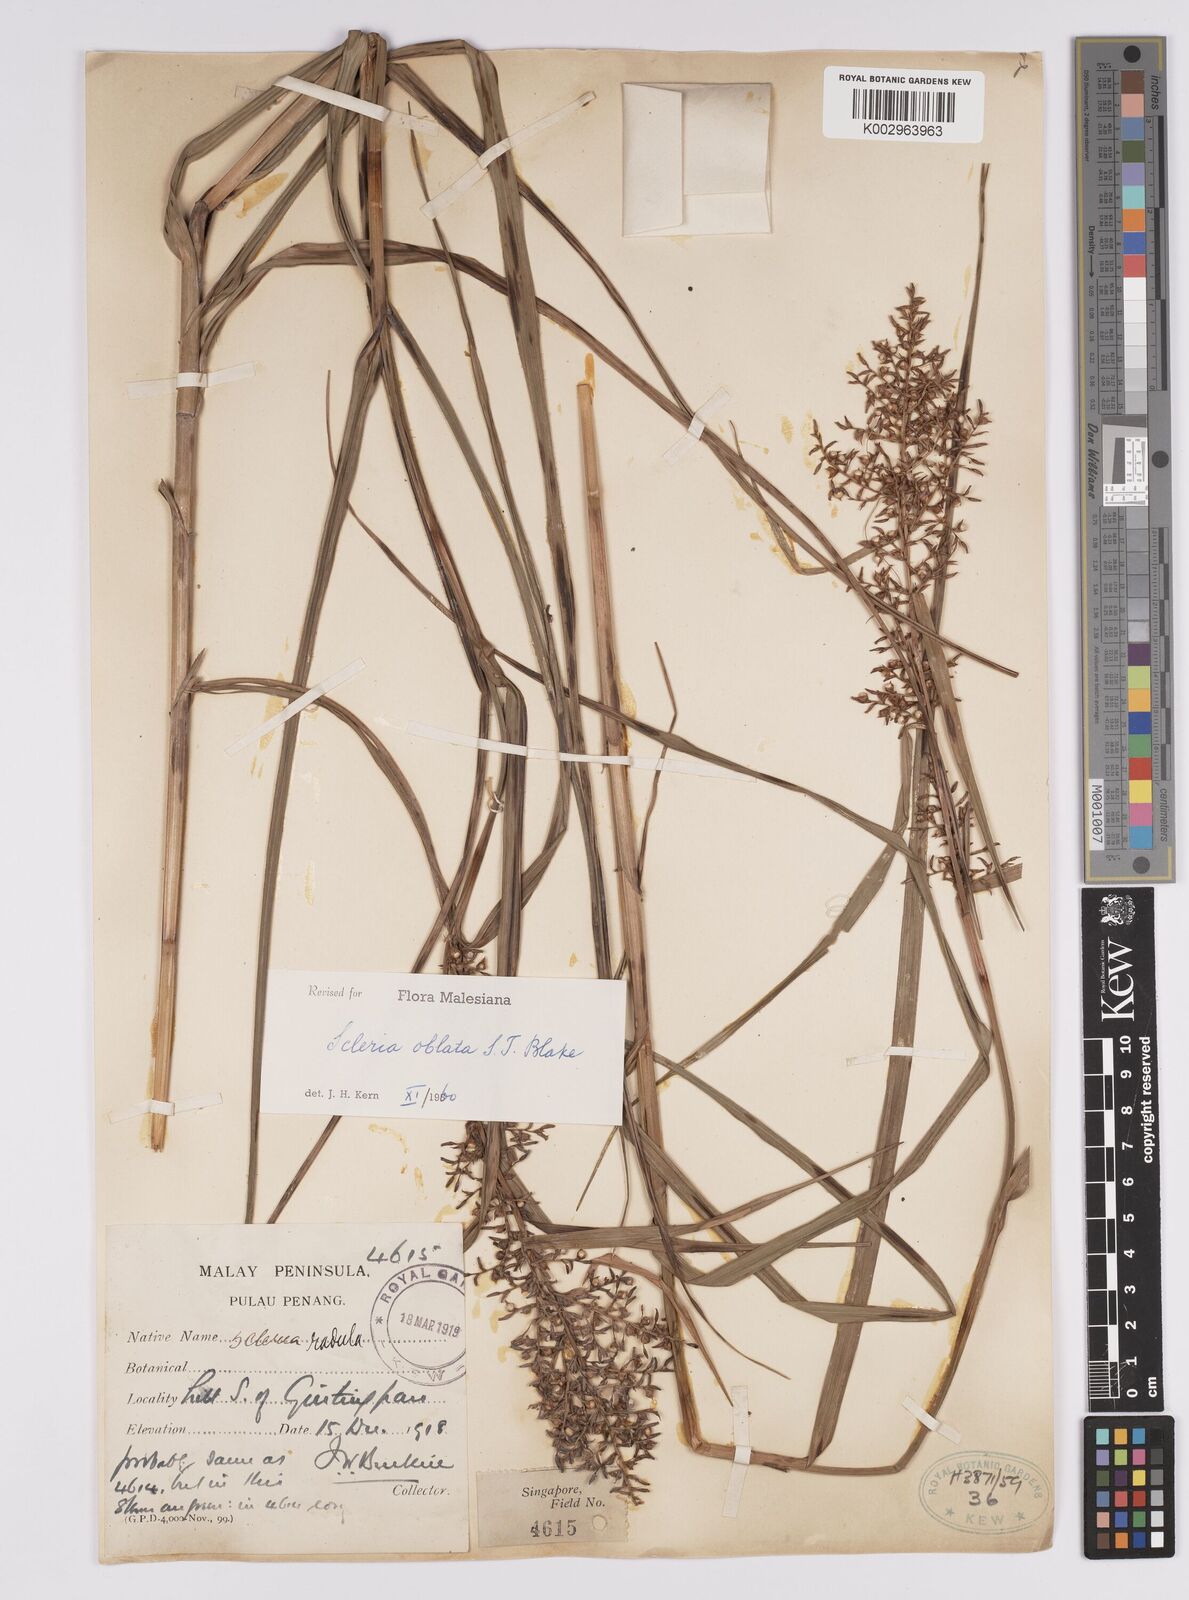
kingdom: Plantae
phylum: Tracheophyta
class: Liliopsida
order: Poales
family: Cyperaceae
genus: Scleria
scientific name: Scleria oblata
